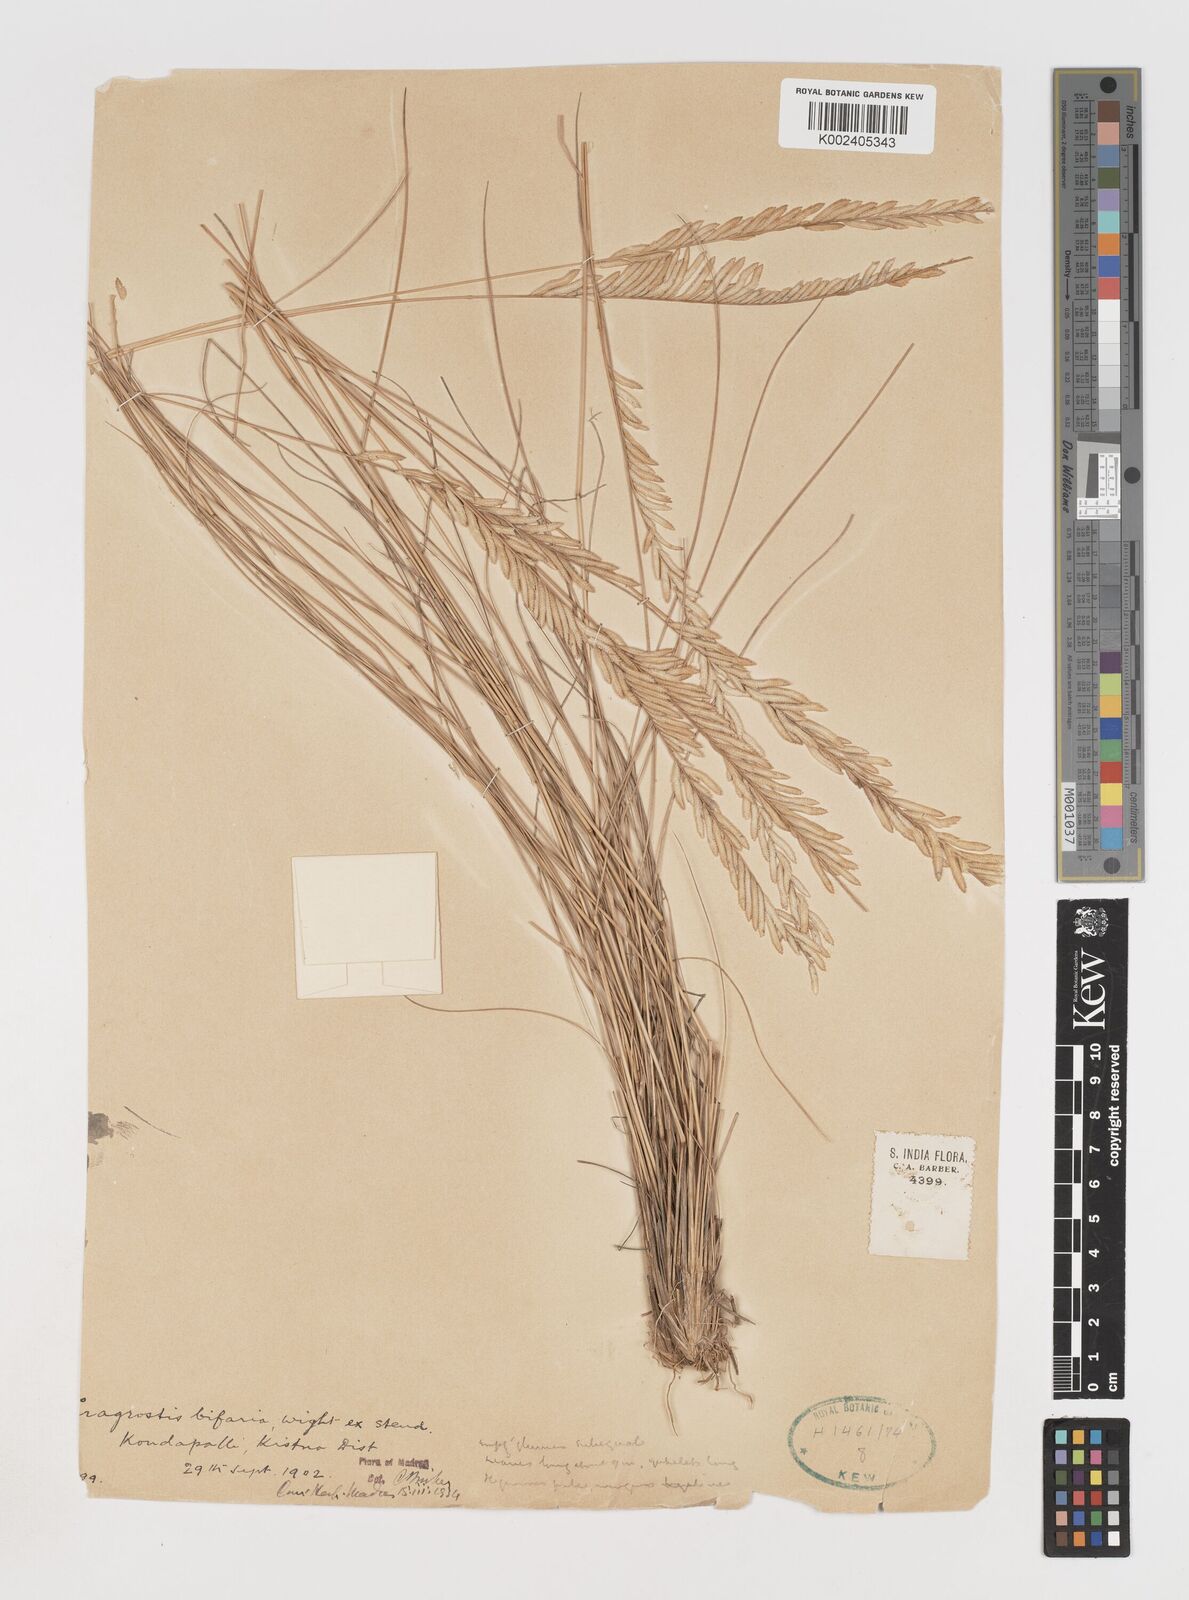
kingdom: Plantae
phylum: Tracheophyta
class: Liliopsida
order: Poales
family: Poaceae
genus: Eragrostiella
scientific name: Eragrostiella bifaria
